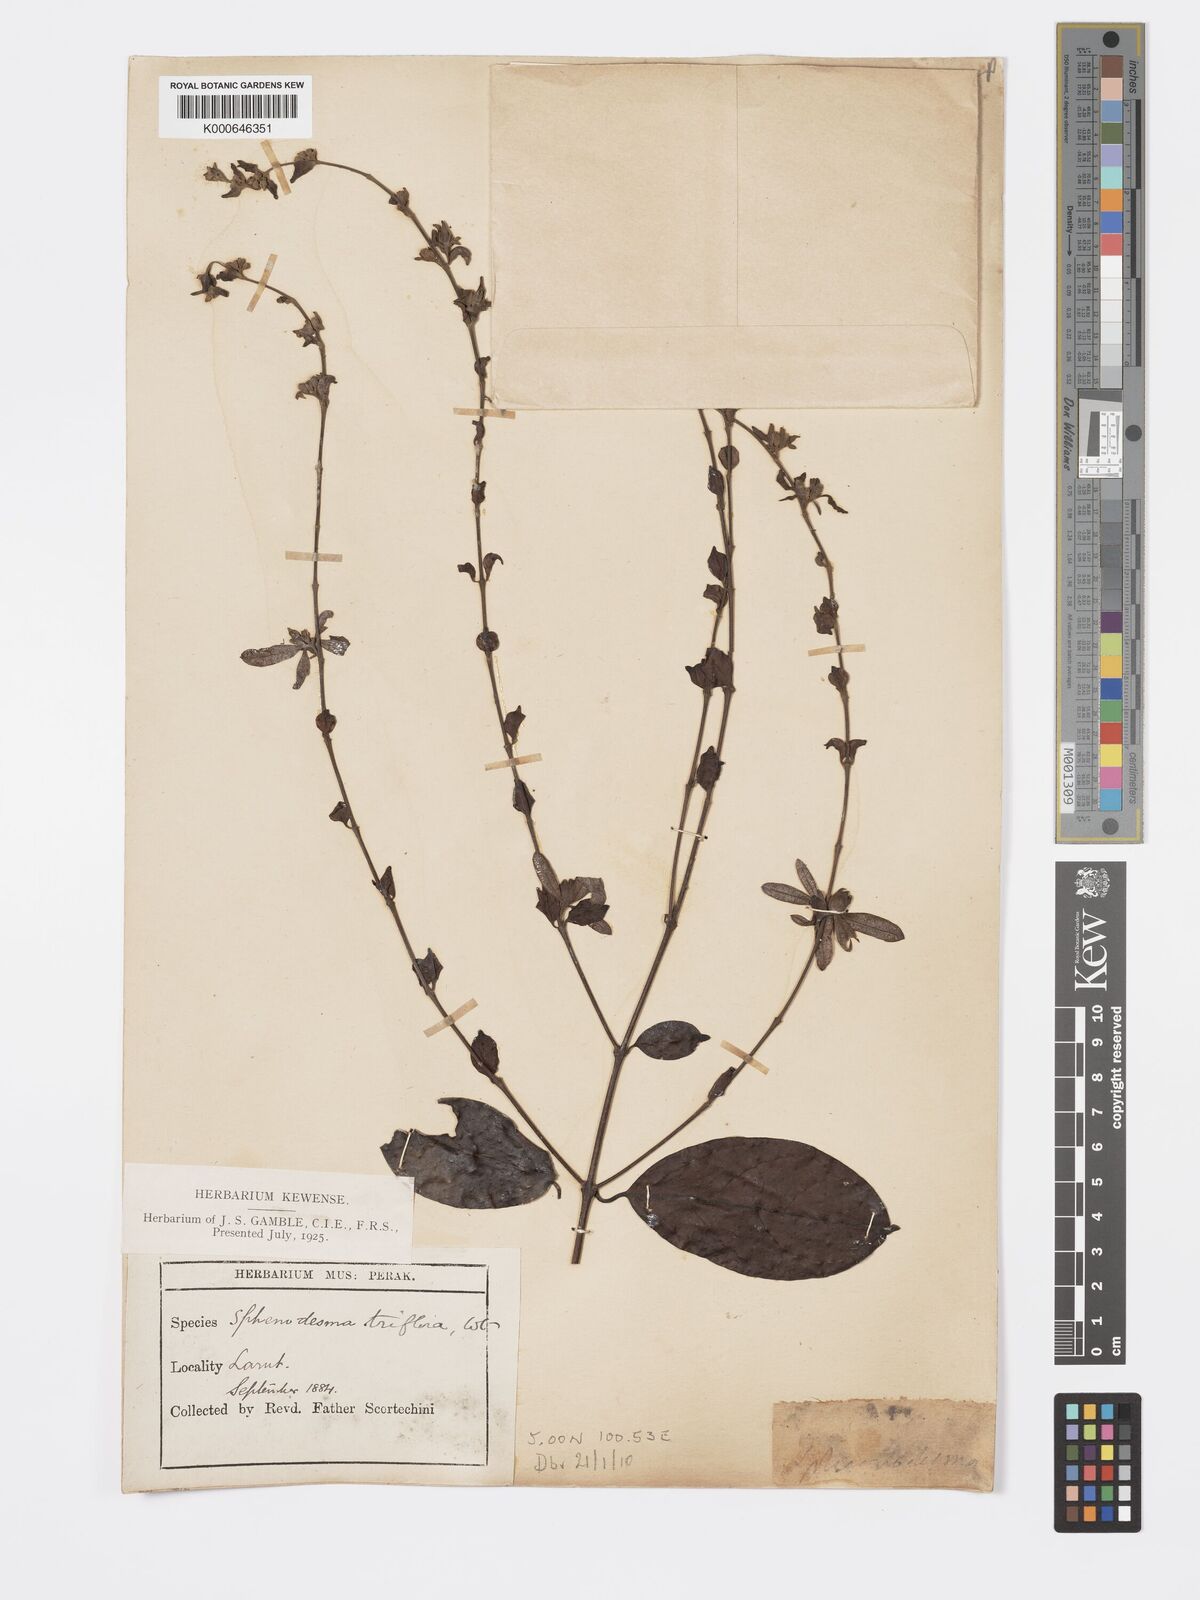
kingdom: Plantae
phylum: Tracheophyta
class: Magnoliopsida
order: Lamiales
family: Lamiaceae
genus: Sphenodesme
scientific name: Sphenodesme
